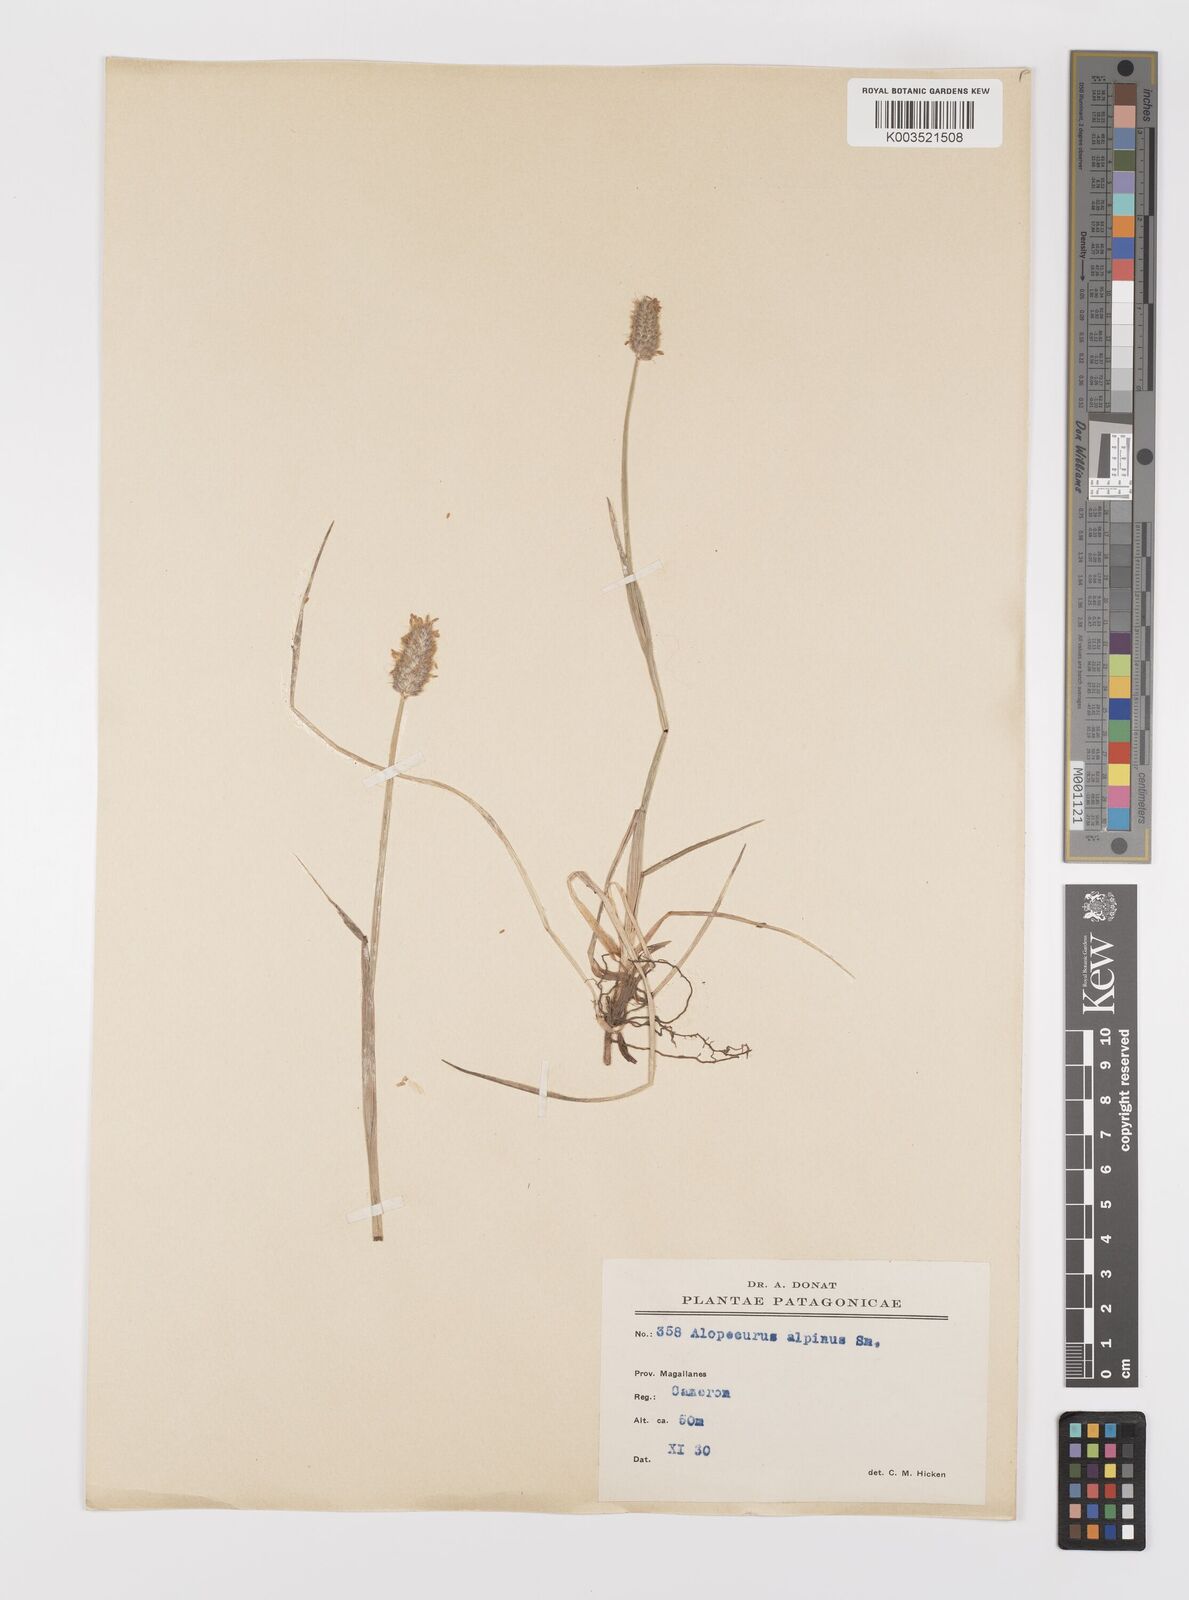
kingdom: Plantae
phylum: Tracheophyta
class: Liliopsida
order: Poales
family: Poaceae
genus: Alopecurus
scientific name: Alopecurus magellanicus
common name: Alpine foxtail
